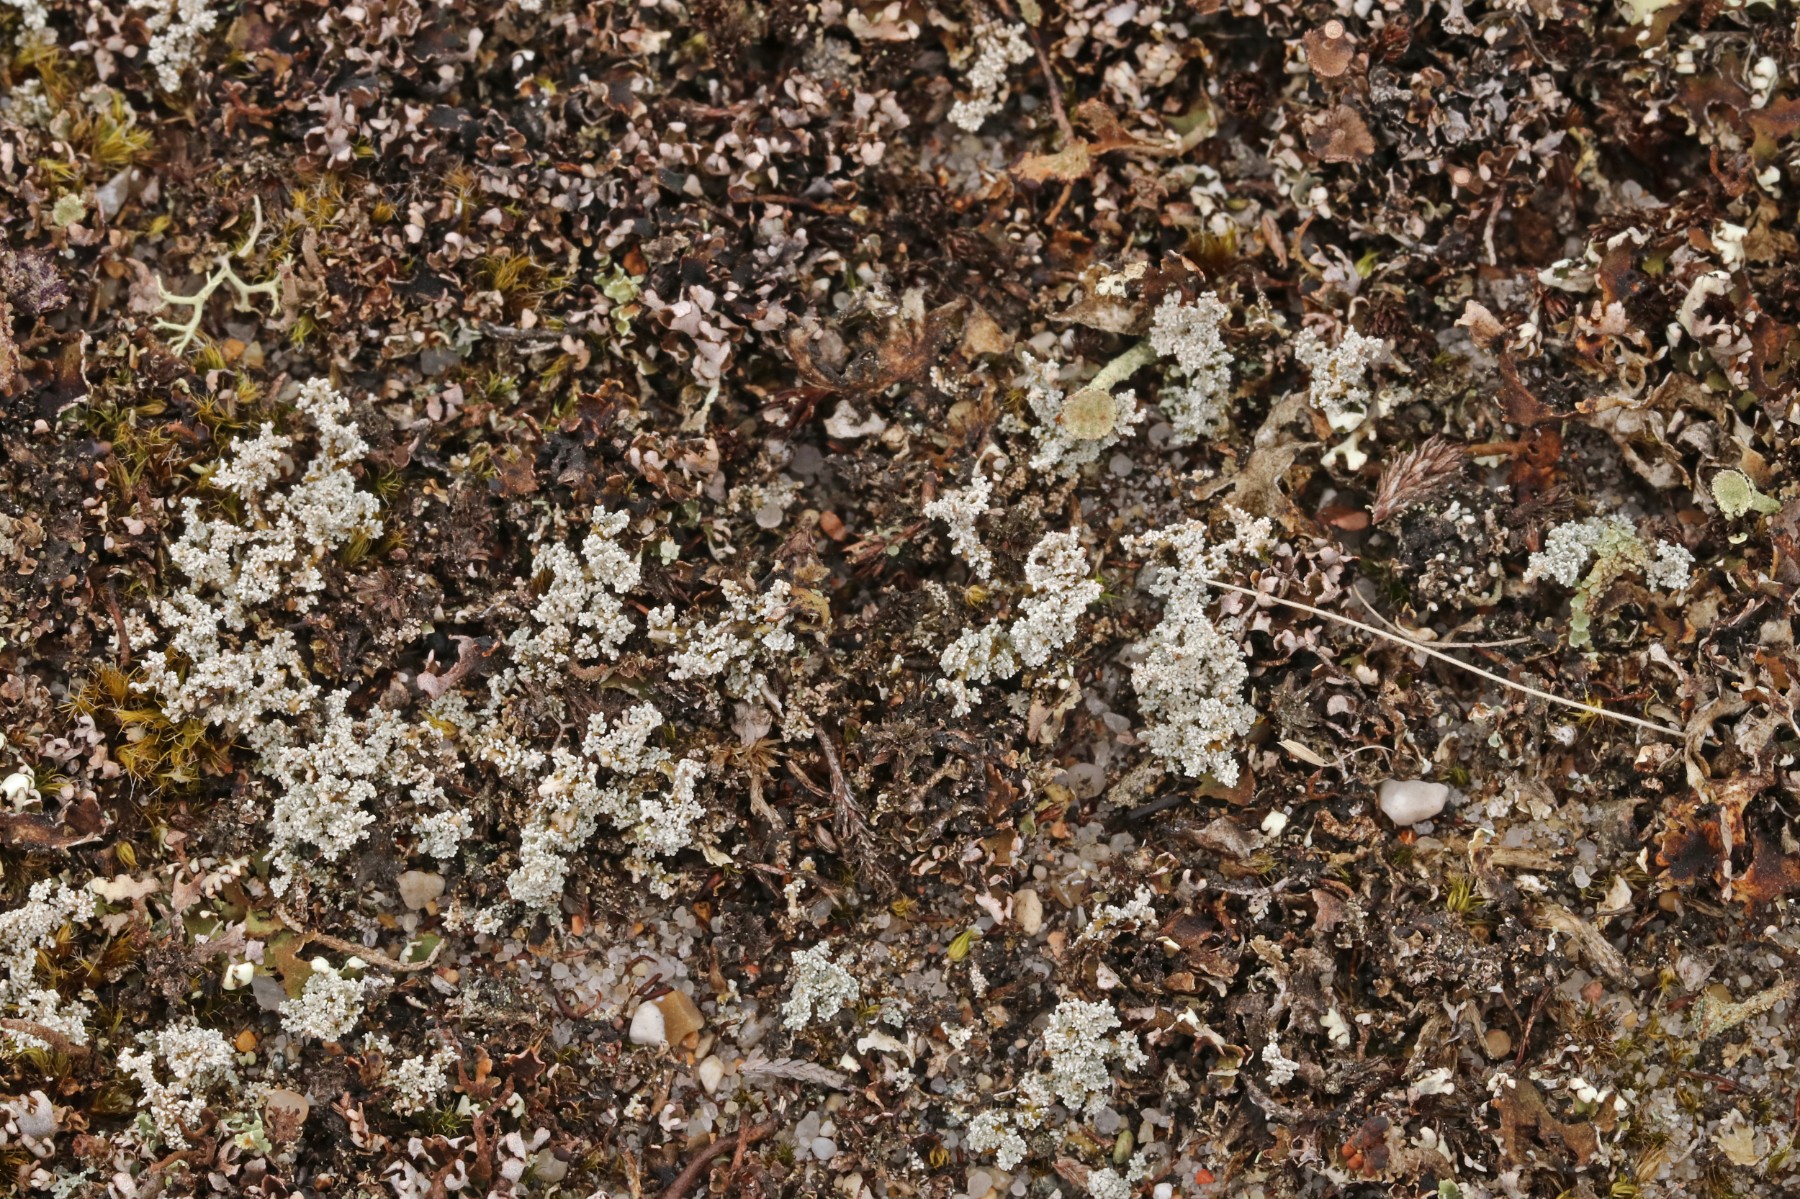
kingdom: Fungi
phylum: Ascomycota
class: Lecanoromycetes
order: Lecanorales
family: Stereocaulaceae
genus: Stereocaulon
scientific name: Stereocaulon saxatile
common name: klit-korallav
